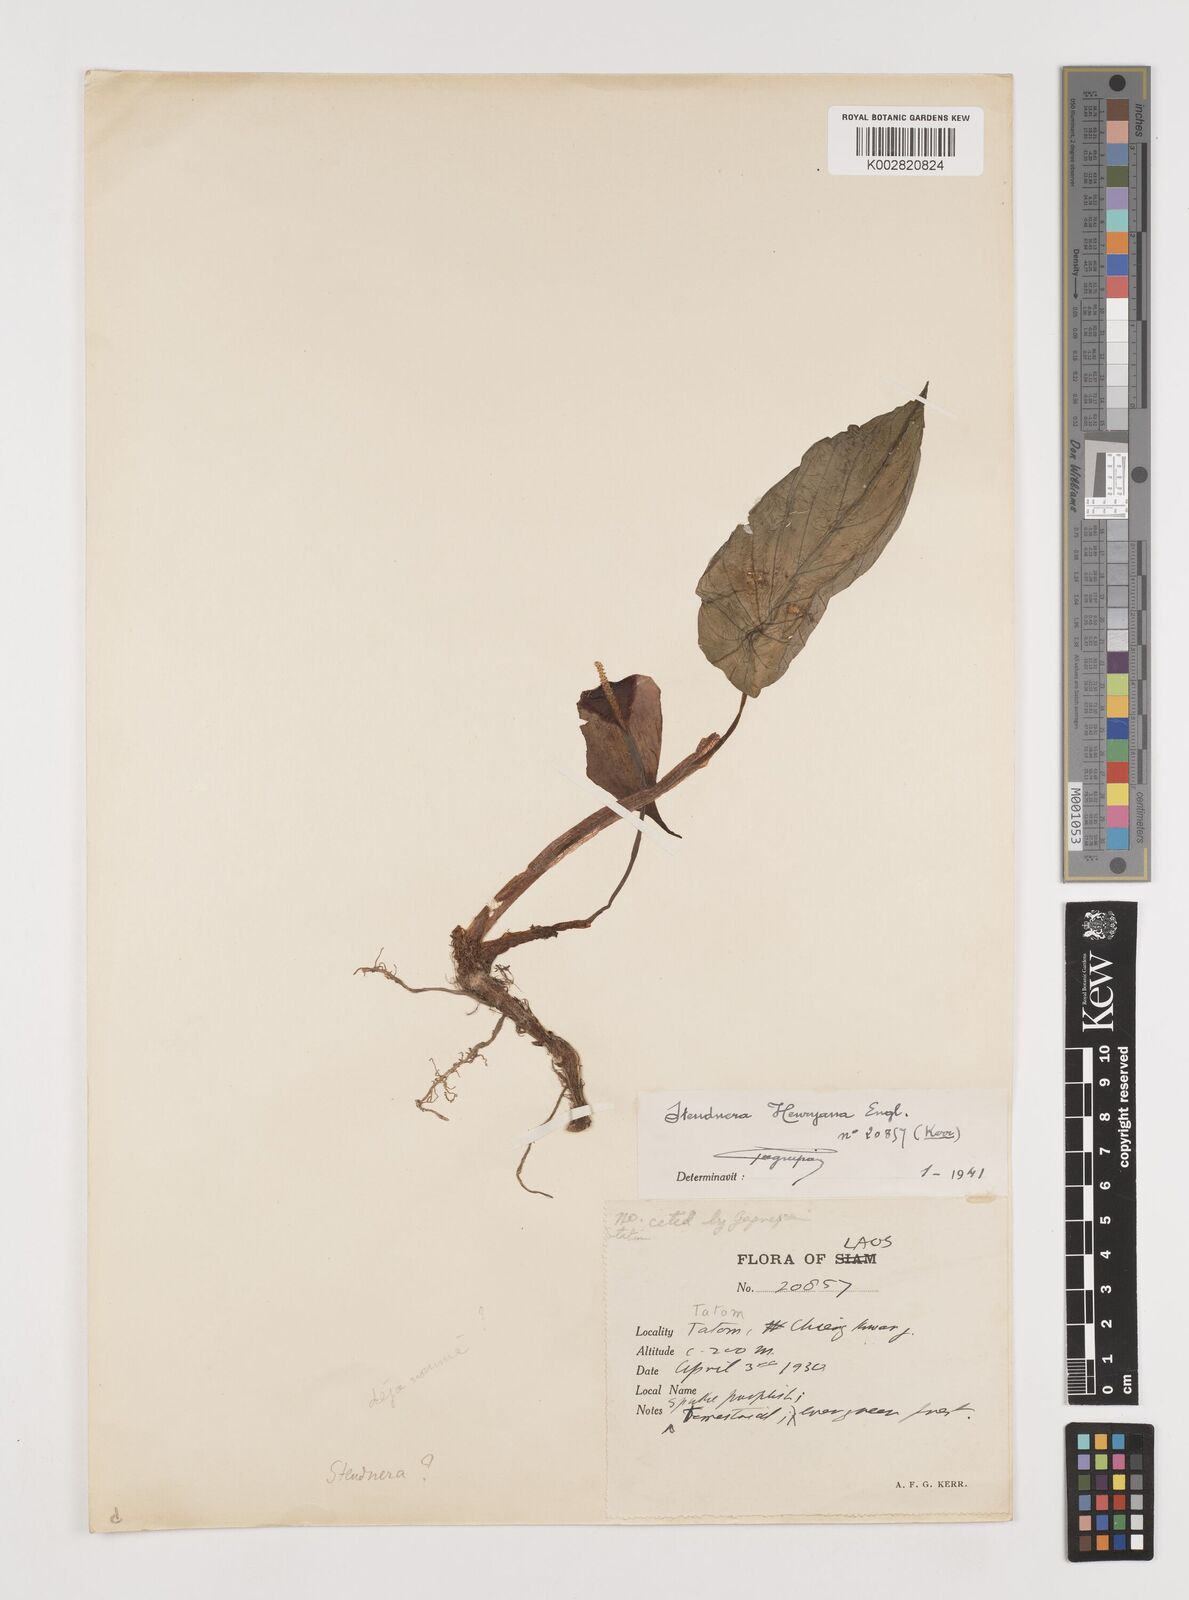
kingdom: Plantae
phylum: Tracheophyta
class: Liliopsida
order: Alismatales
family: Araceae
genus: Steudnera
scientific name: Steudnera henryana
